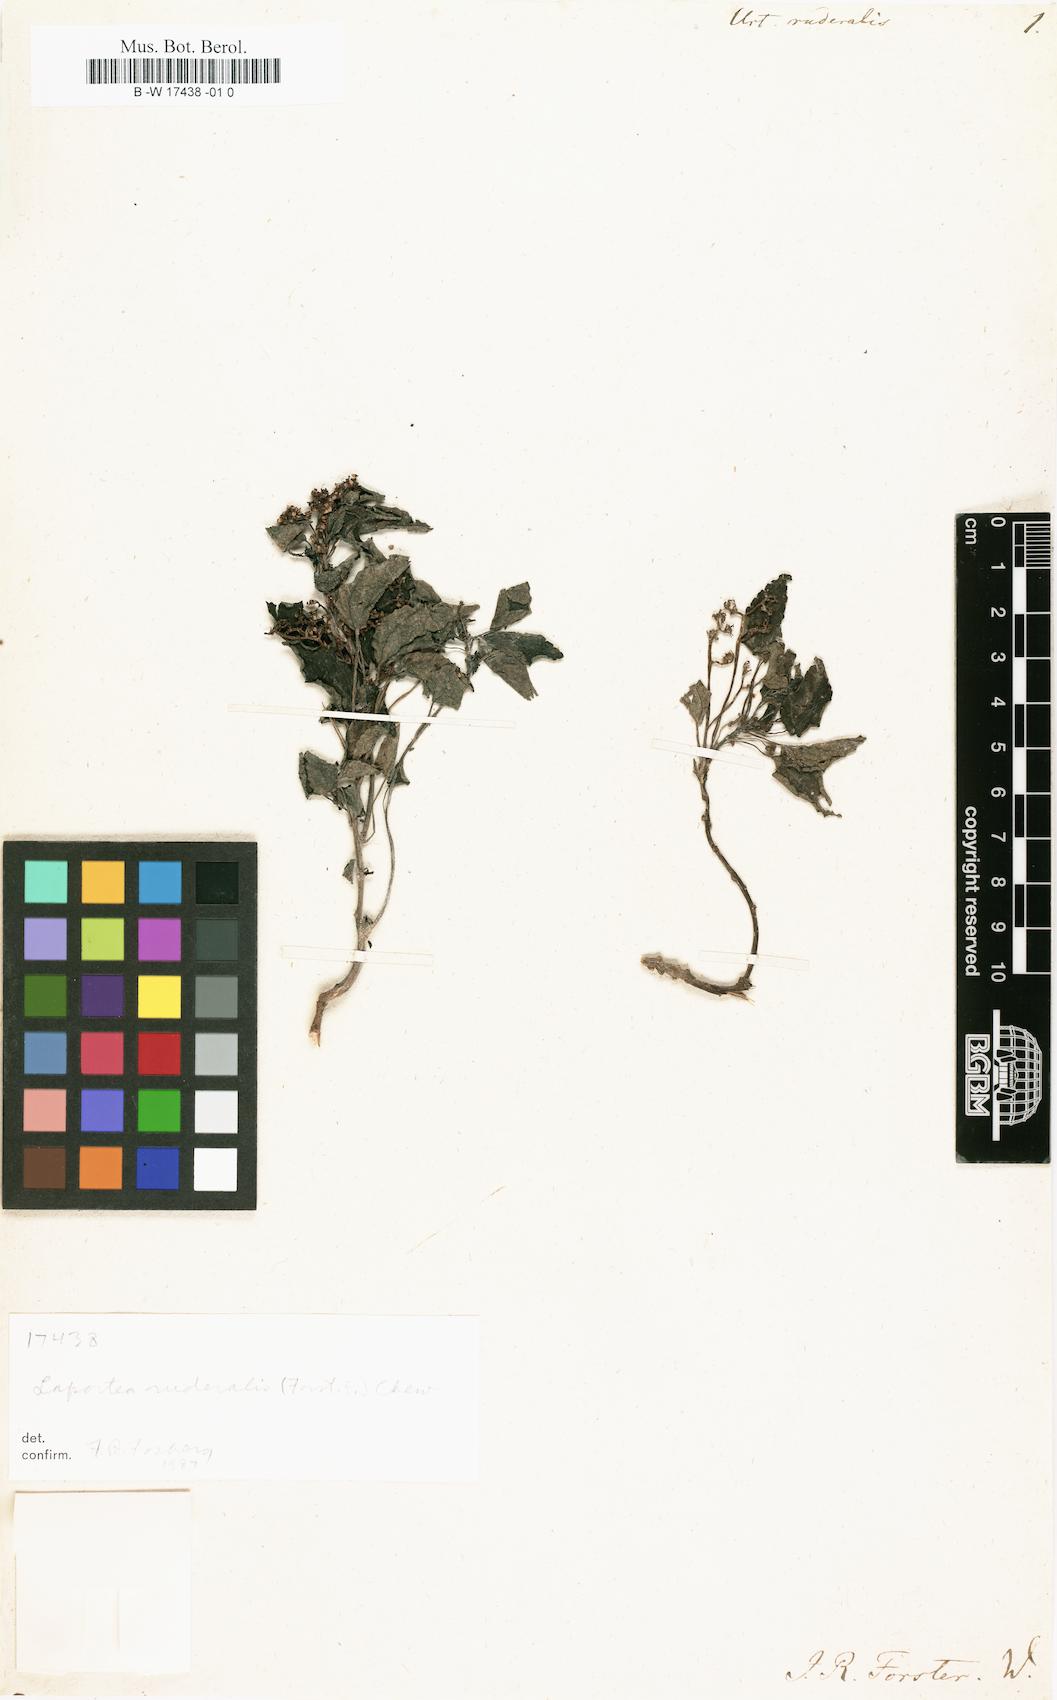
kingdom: Plantae
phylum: Tracheophyta
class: Magnoliopsida
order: Rosales
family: Urticaceae
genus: Laportea
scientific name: Laportea ruderalis
